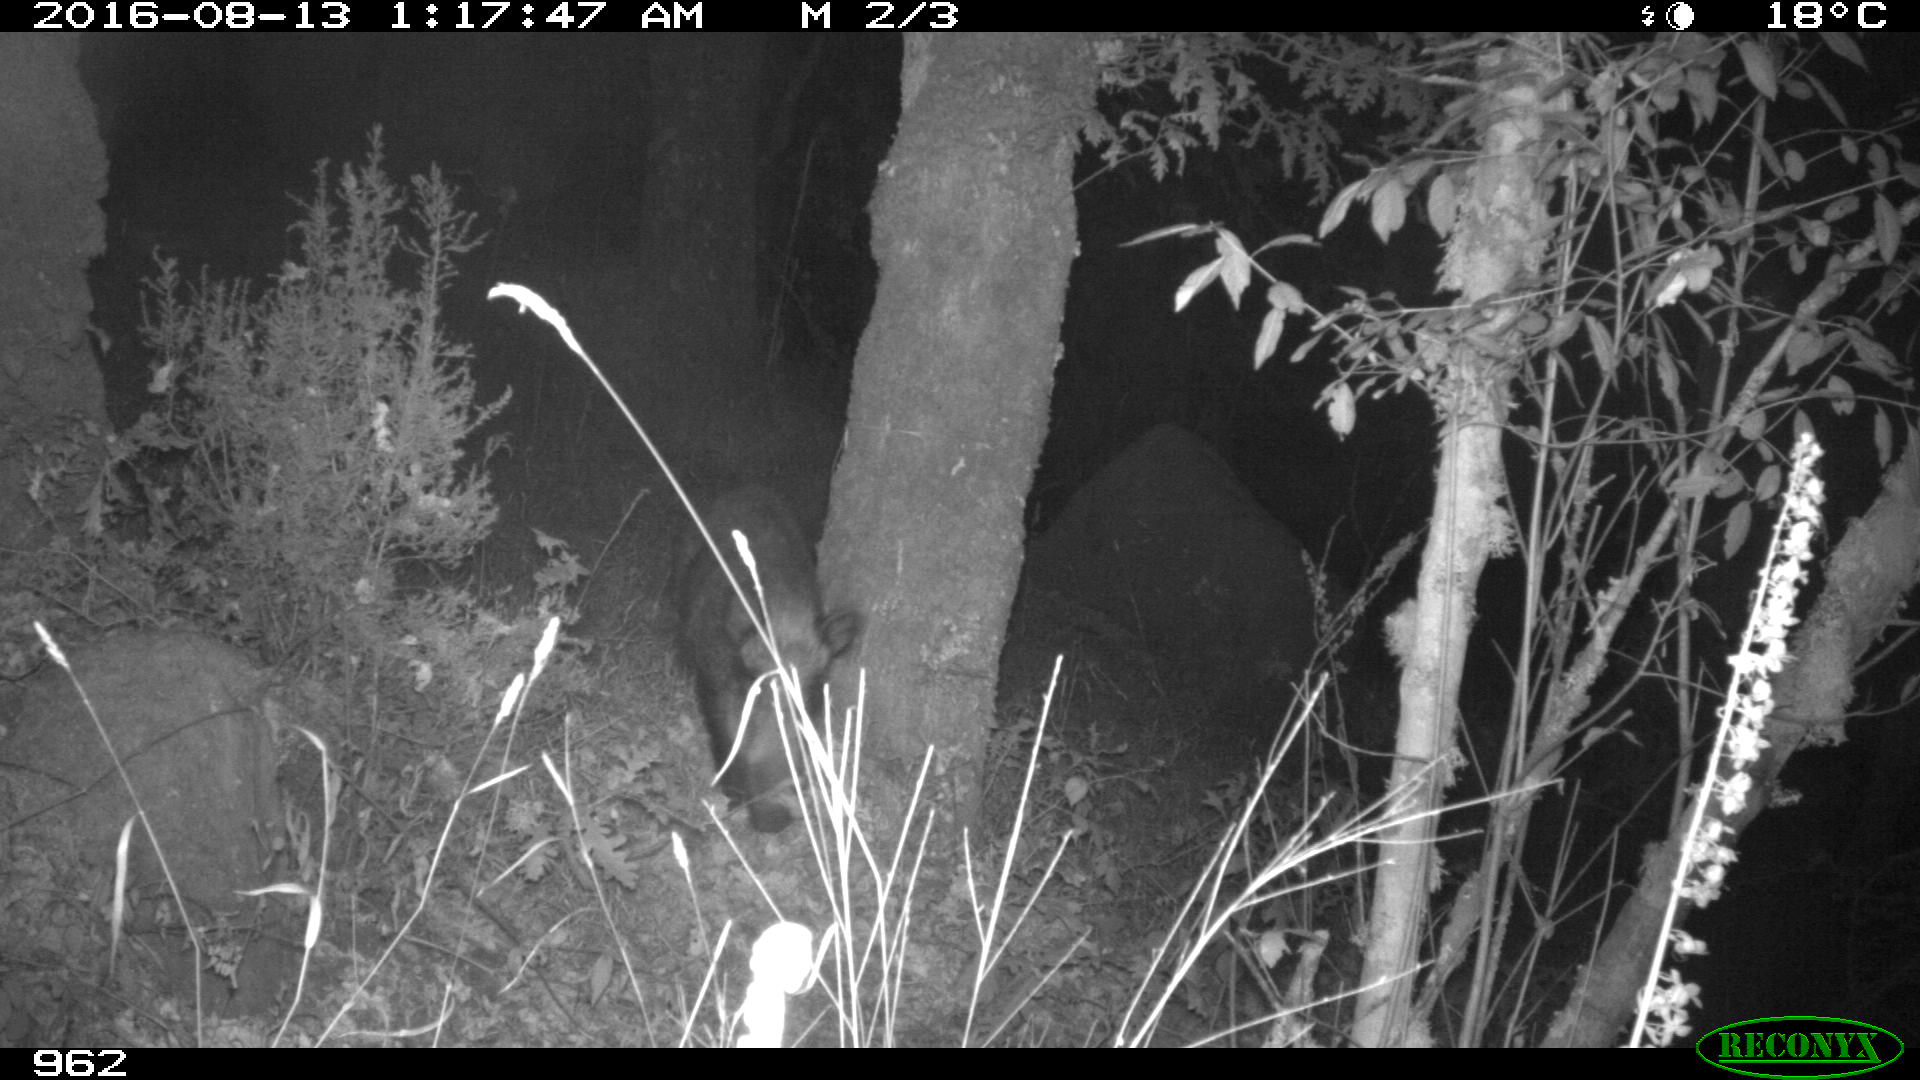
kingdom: Animalia
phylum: Chordata
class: Mammalia
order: Artiodactyla
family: Suidae
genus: Sus
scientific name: Sus scrofa
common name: Wild boar
